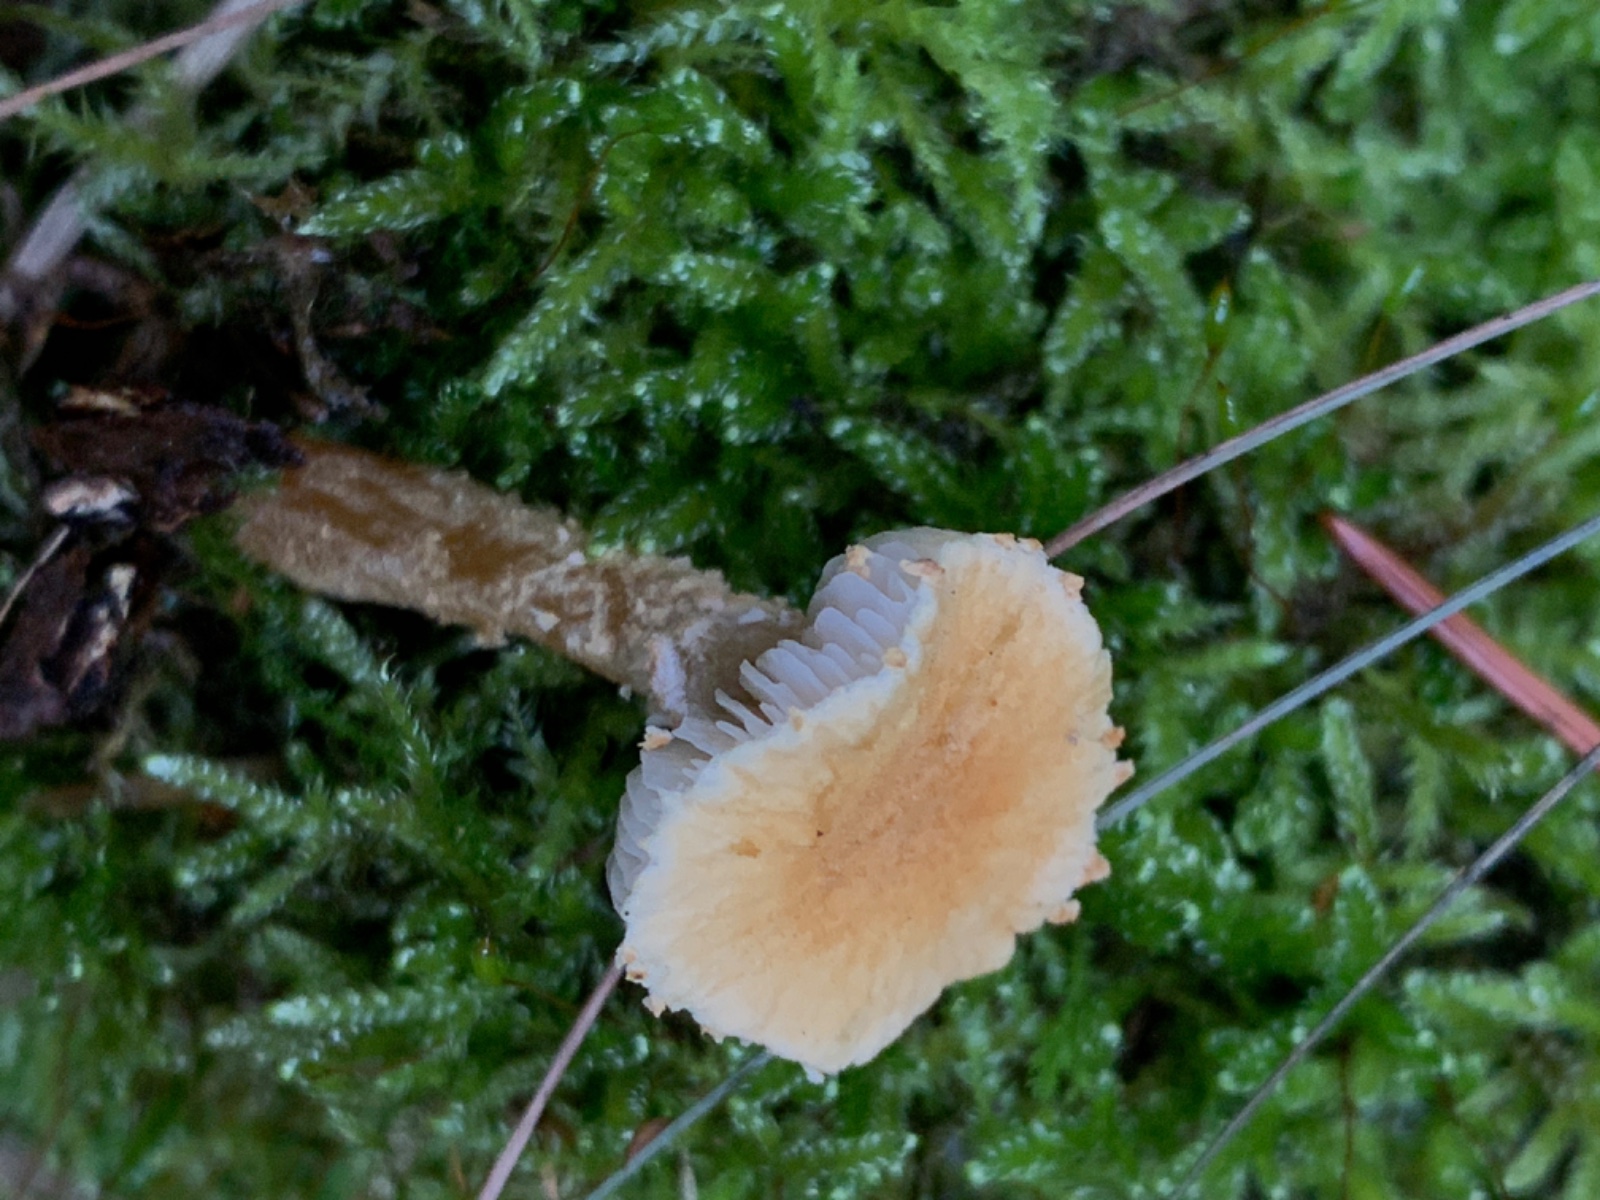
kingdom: Fungi
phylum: Basidiomycota
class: Agaricomycetes
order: Agaricales
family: Tricholomataceae
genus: Cystoderma
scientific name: Cystoderma amianthinum
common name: okkergul grynhat
